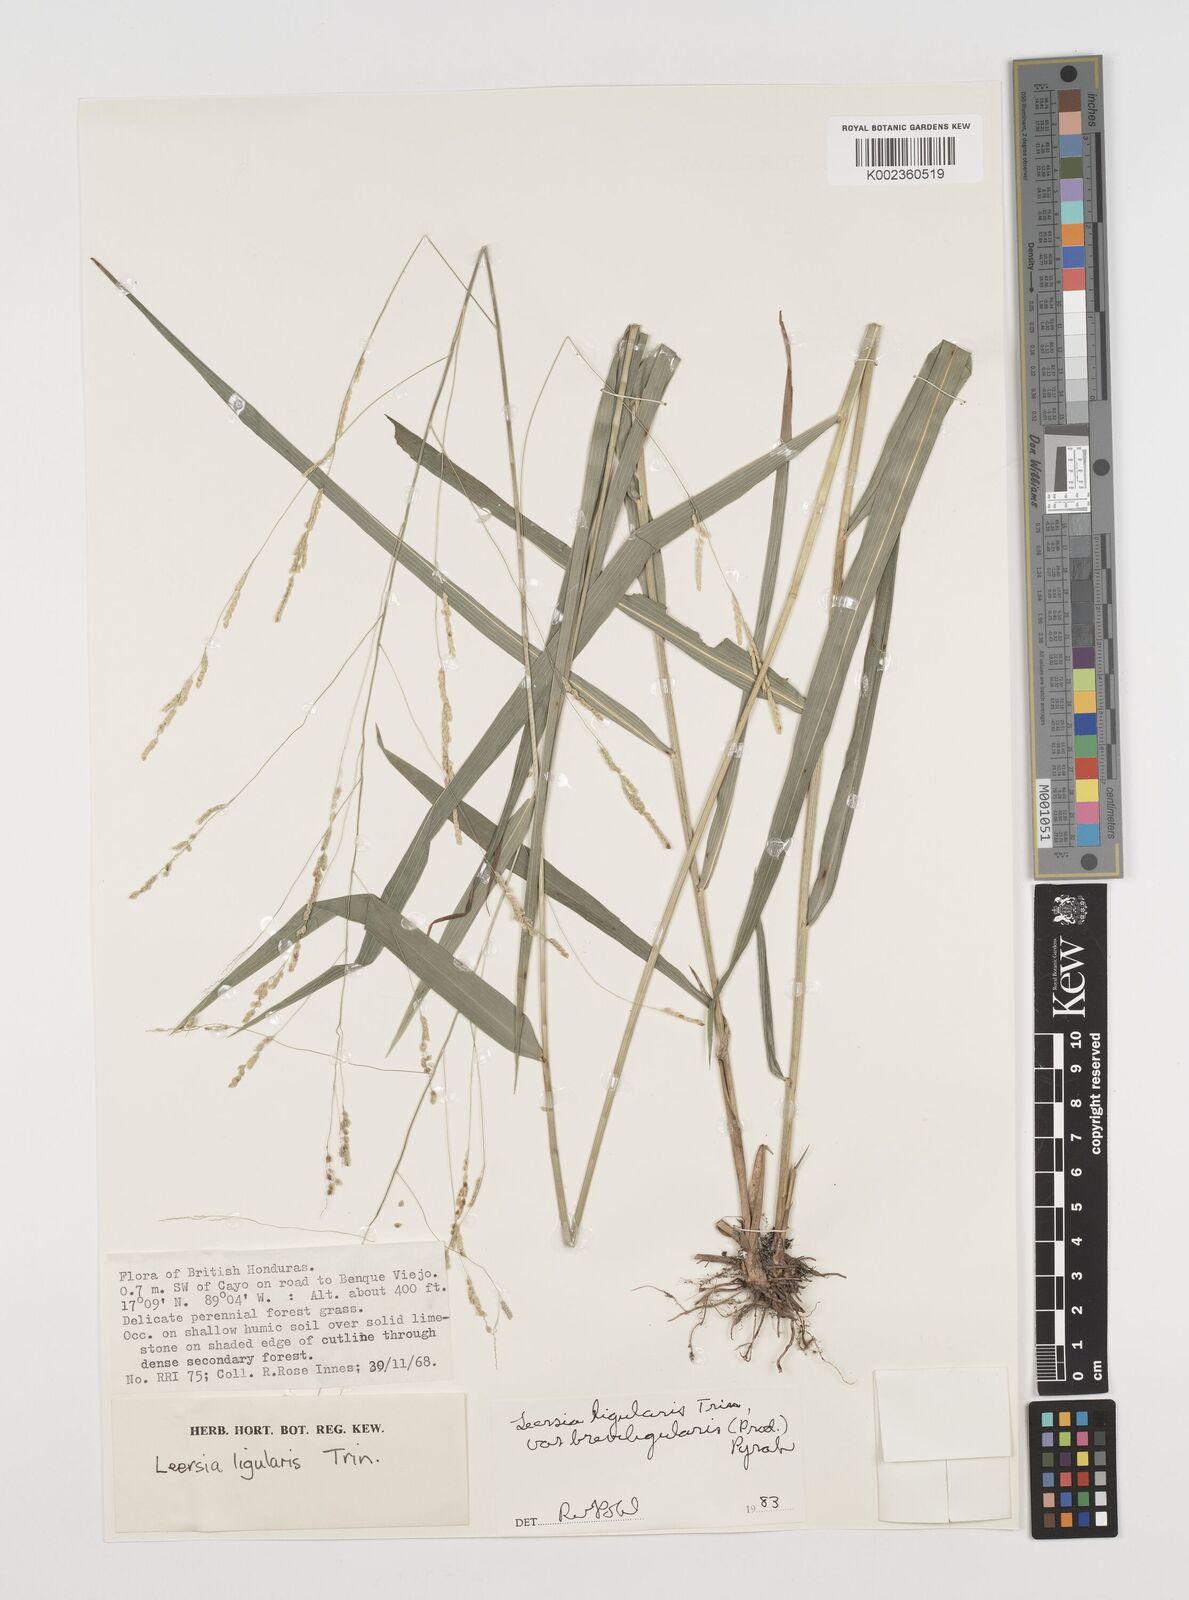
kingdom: Plantae
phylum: Tracheophyta
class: Liliopsida
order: Poales
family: Poaceae
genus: Leersia
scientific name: Leersia ligularis
